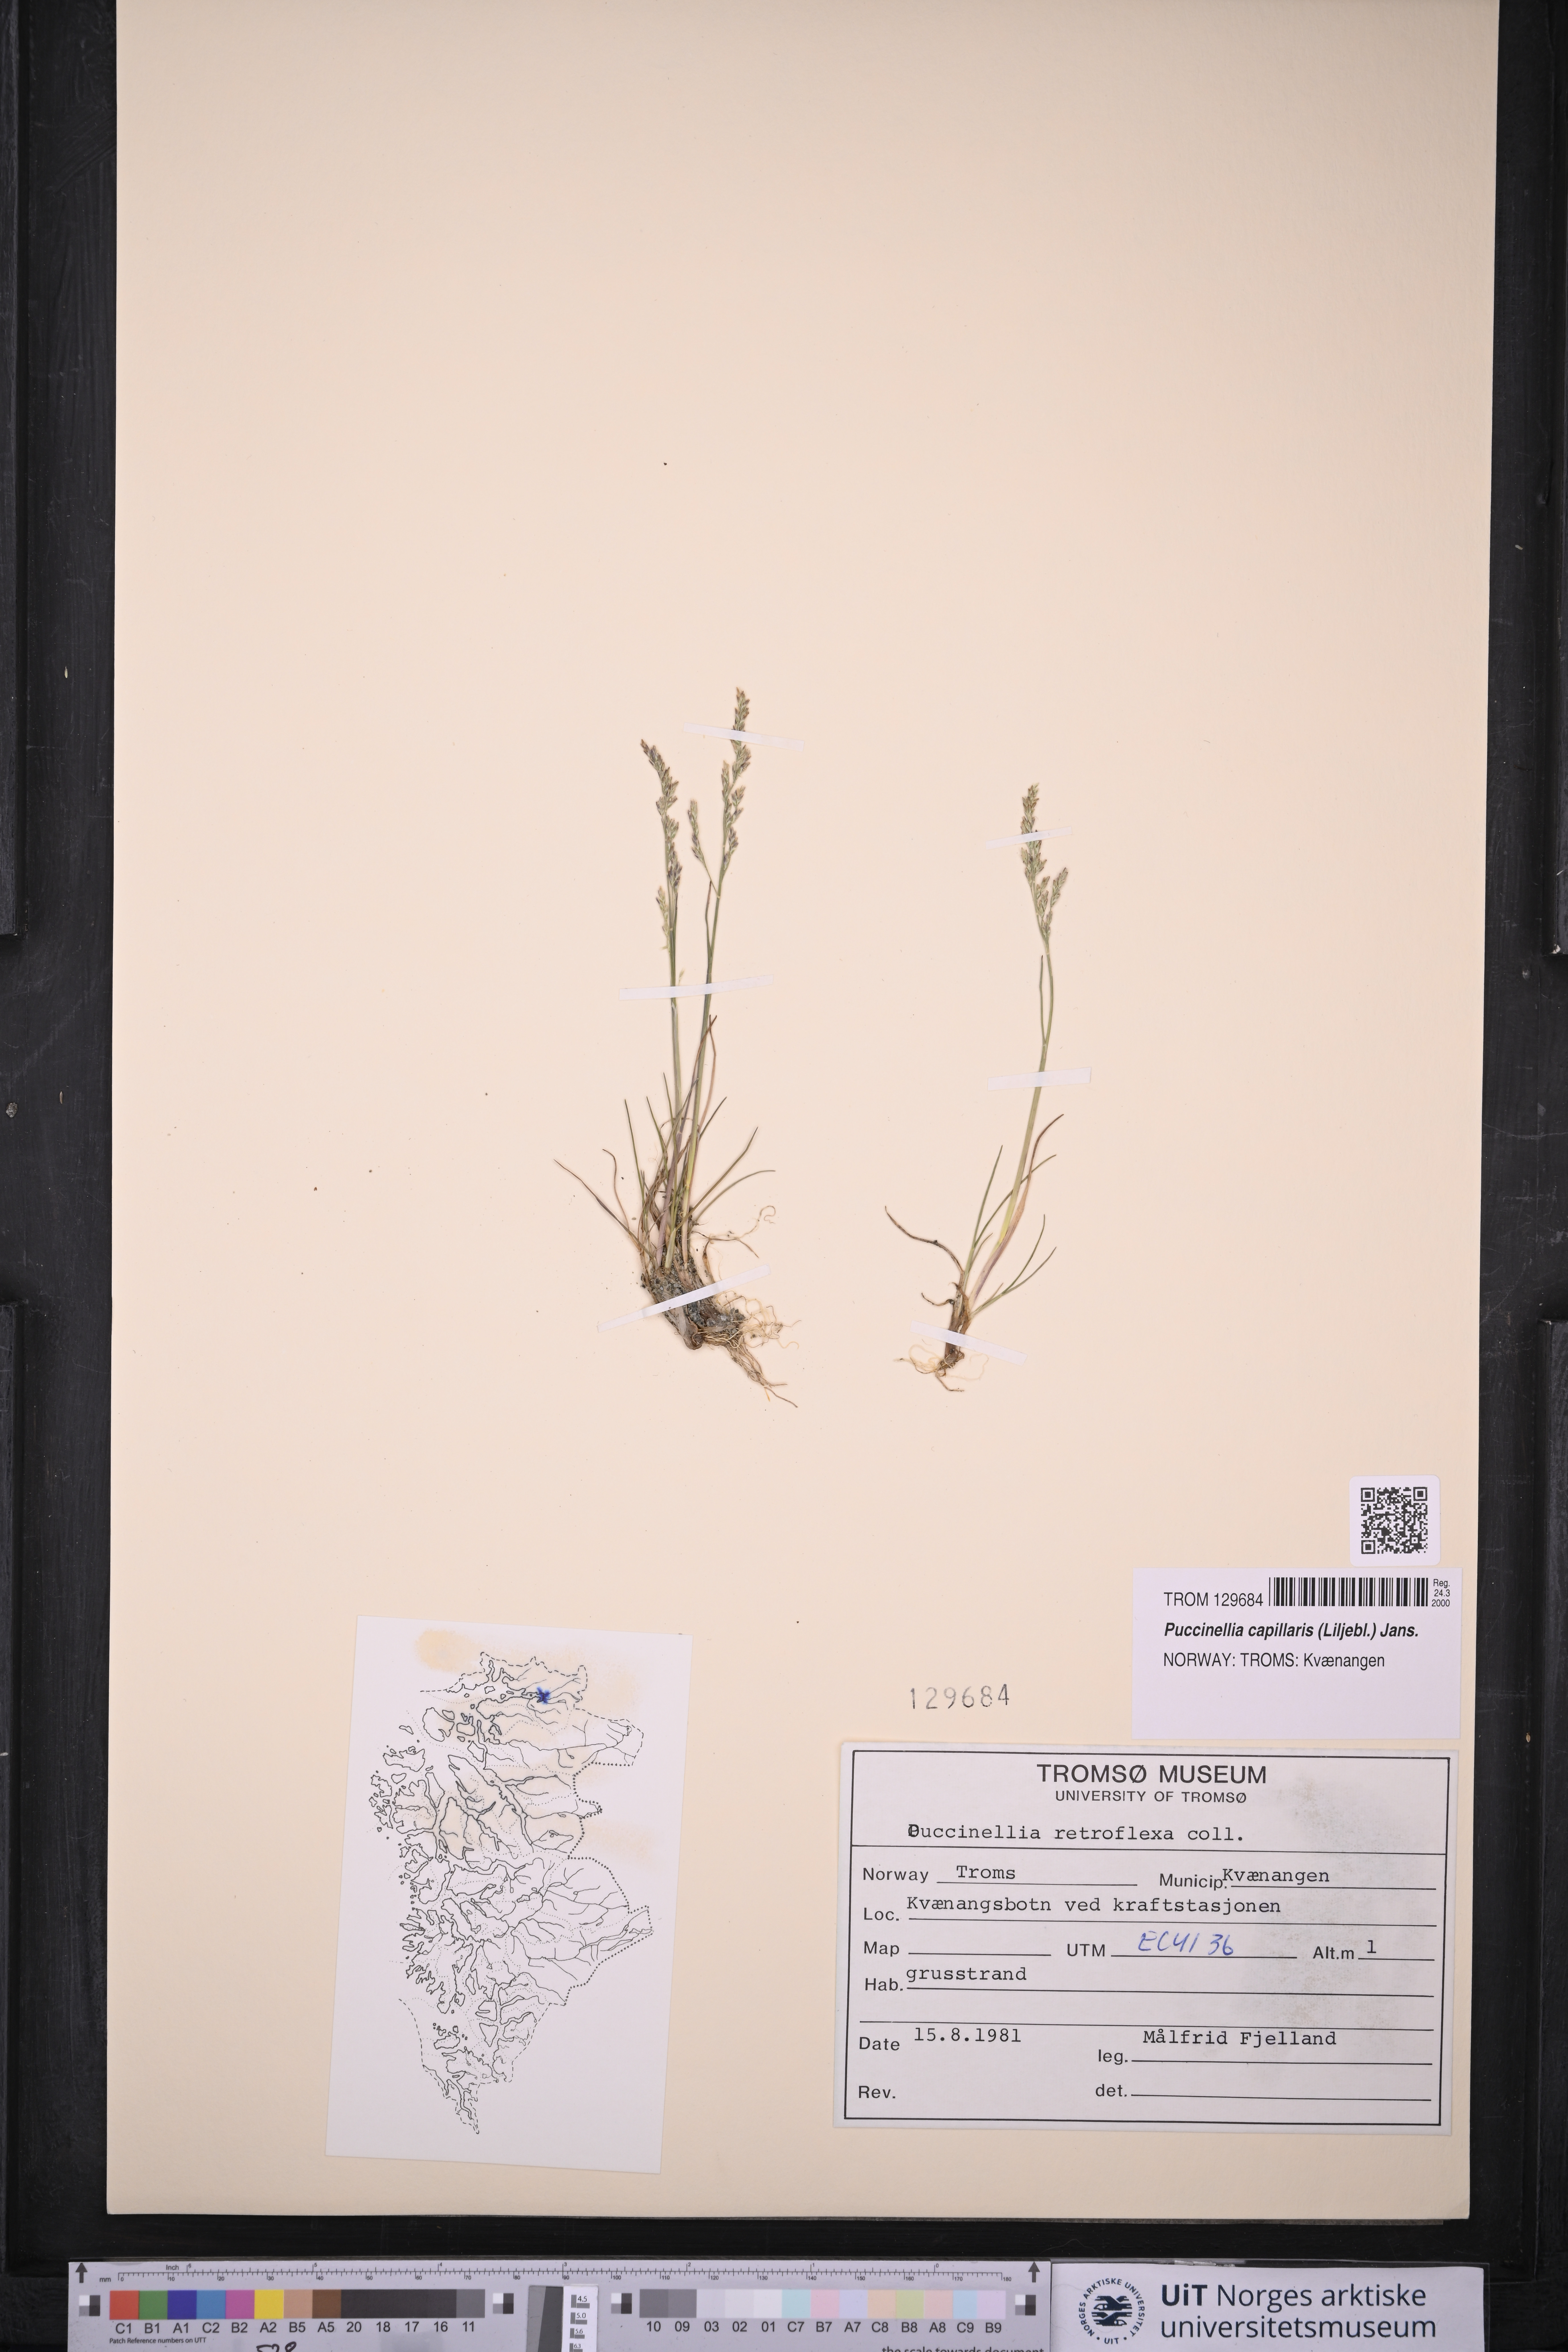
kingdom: Plantae
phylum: Tracheophyta
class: Liliopsida
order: Poales
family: Poaceae
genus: Puccinellia
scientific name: Puccinellia distans
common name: Weeping alkaligrass
